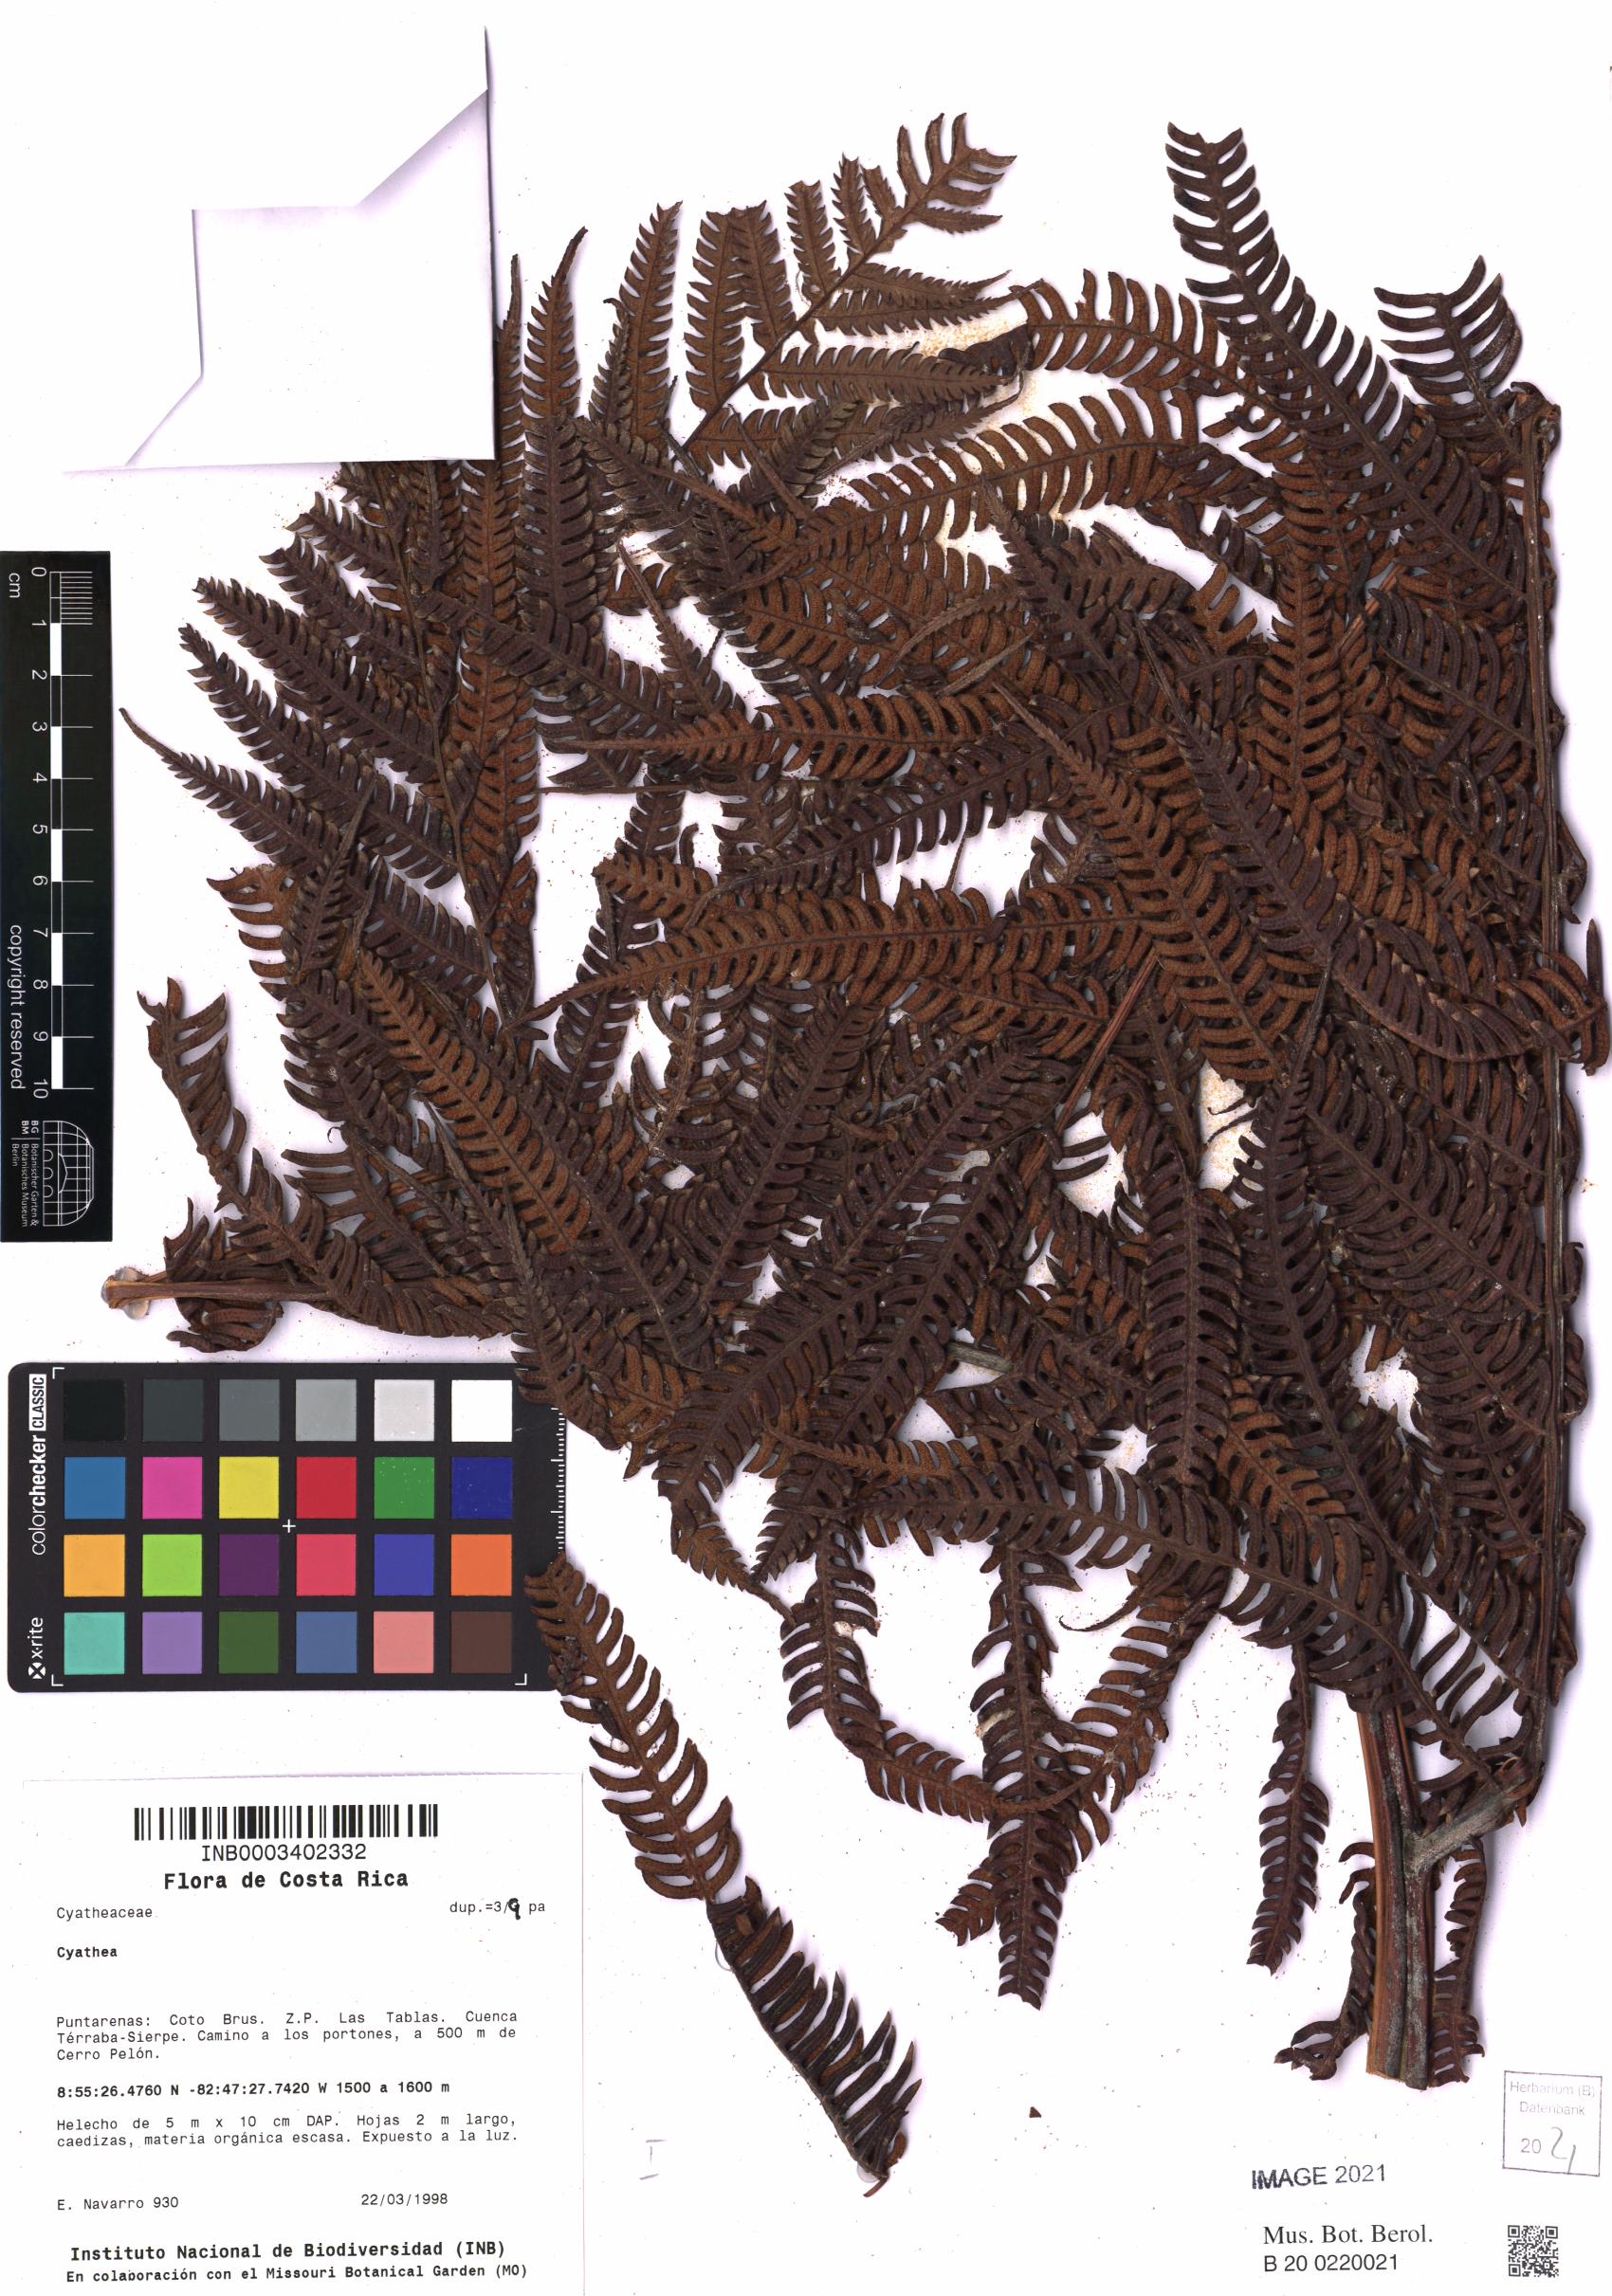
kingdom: Plantae
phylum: Tracheophyta
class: Polypodiopsida
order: Cyatheales
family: Cyatheaceae
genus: Cyathea
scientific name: Cyathea
